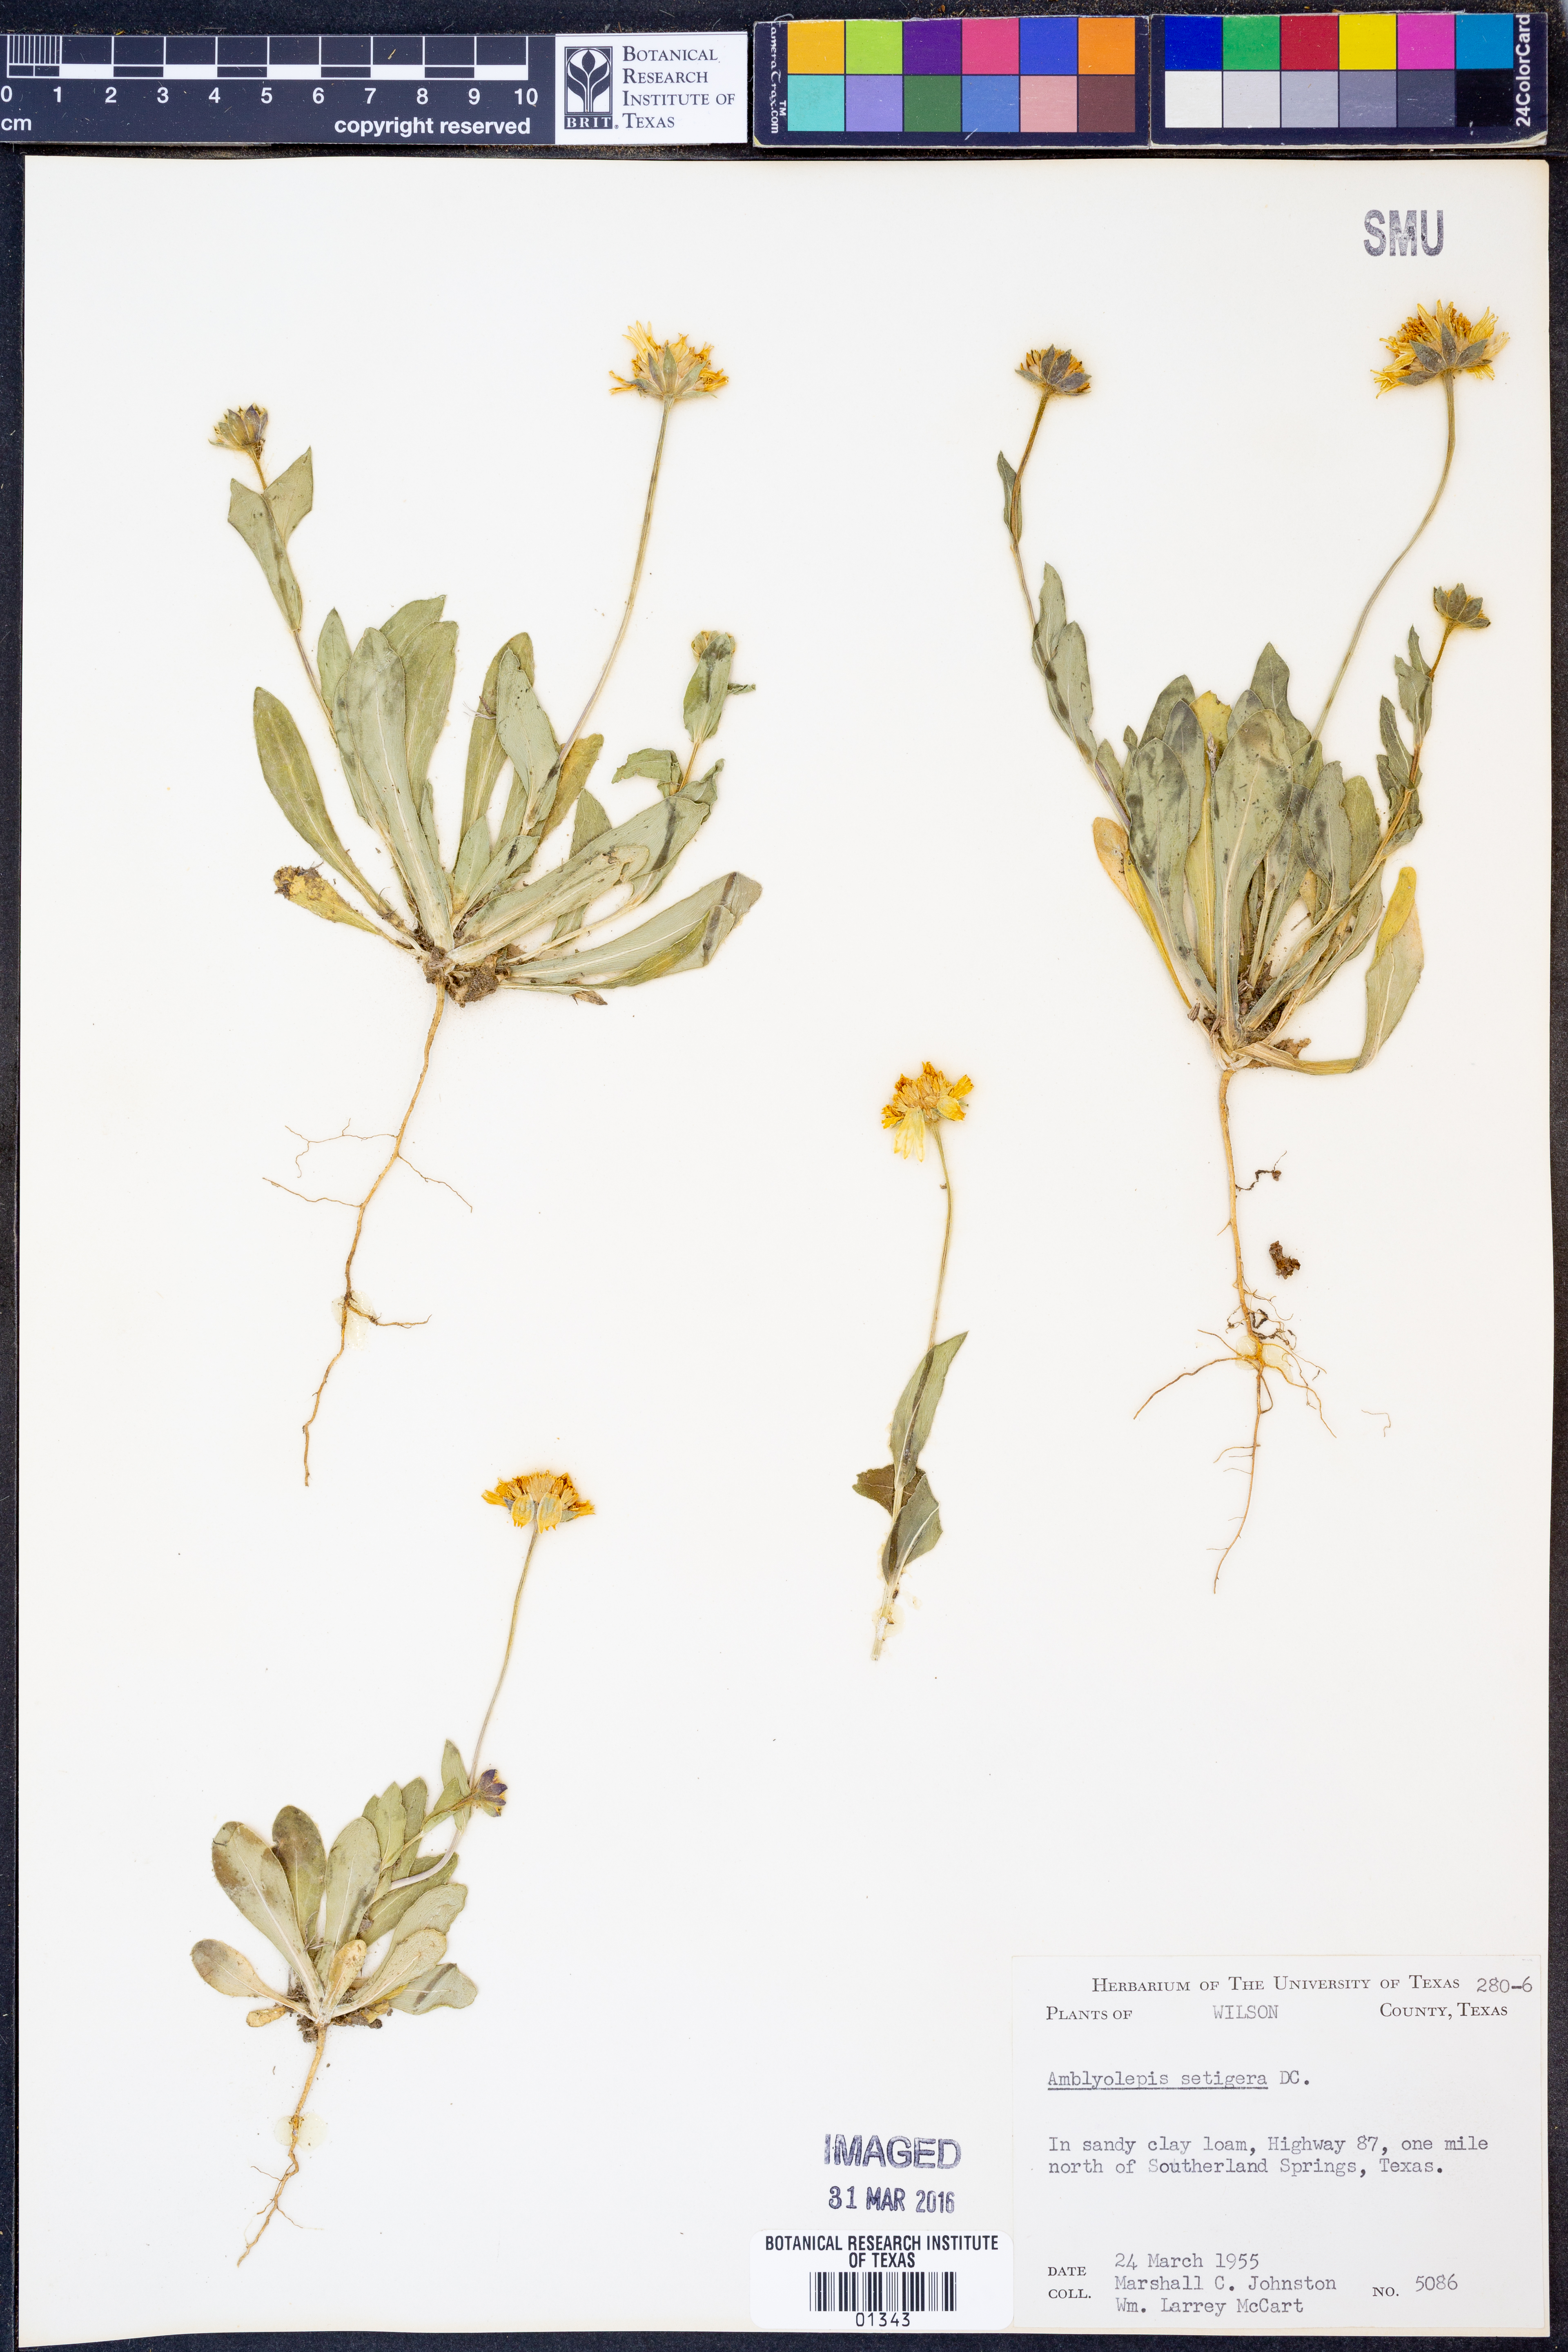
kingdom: Plantae
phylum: Tracheophyta
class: Magnoliopsida
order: Asterales
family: Asteraceae
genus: Amblyolepis
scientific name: Amblyolepis setigera
